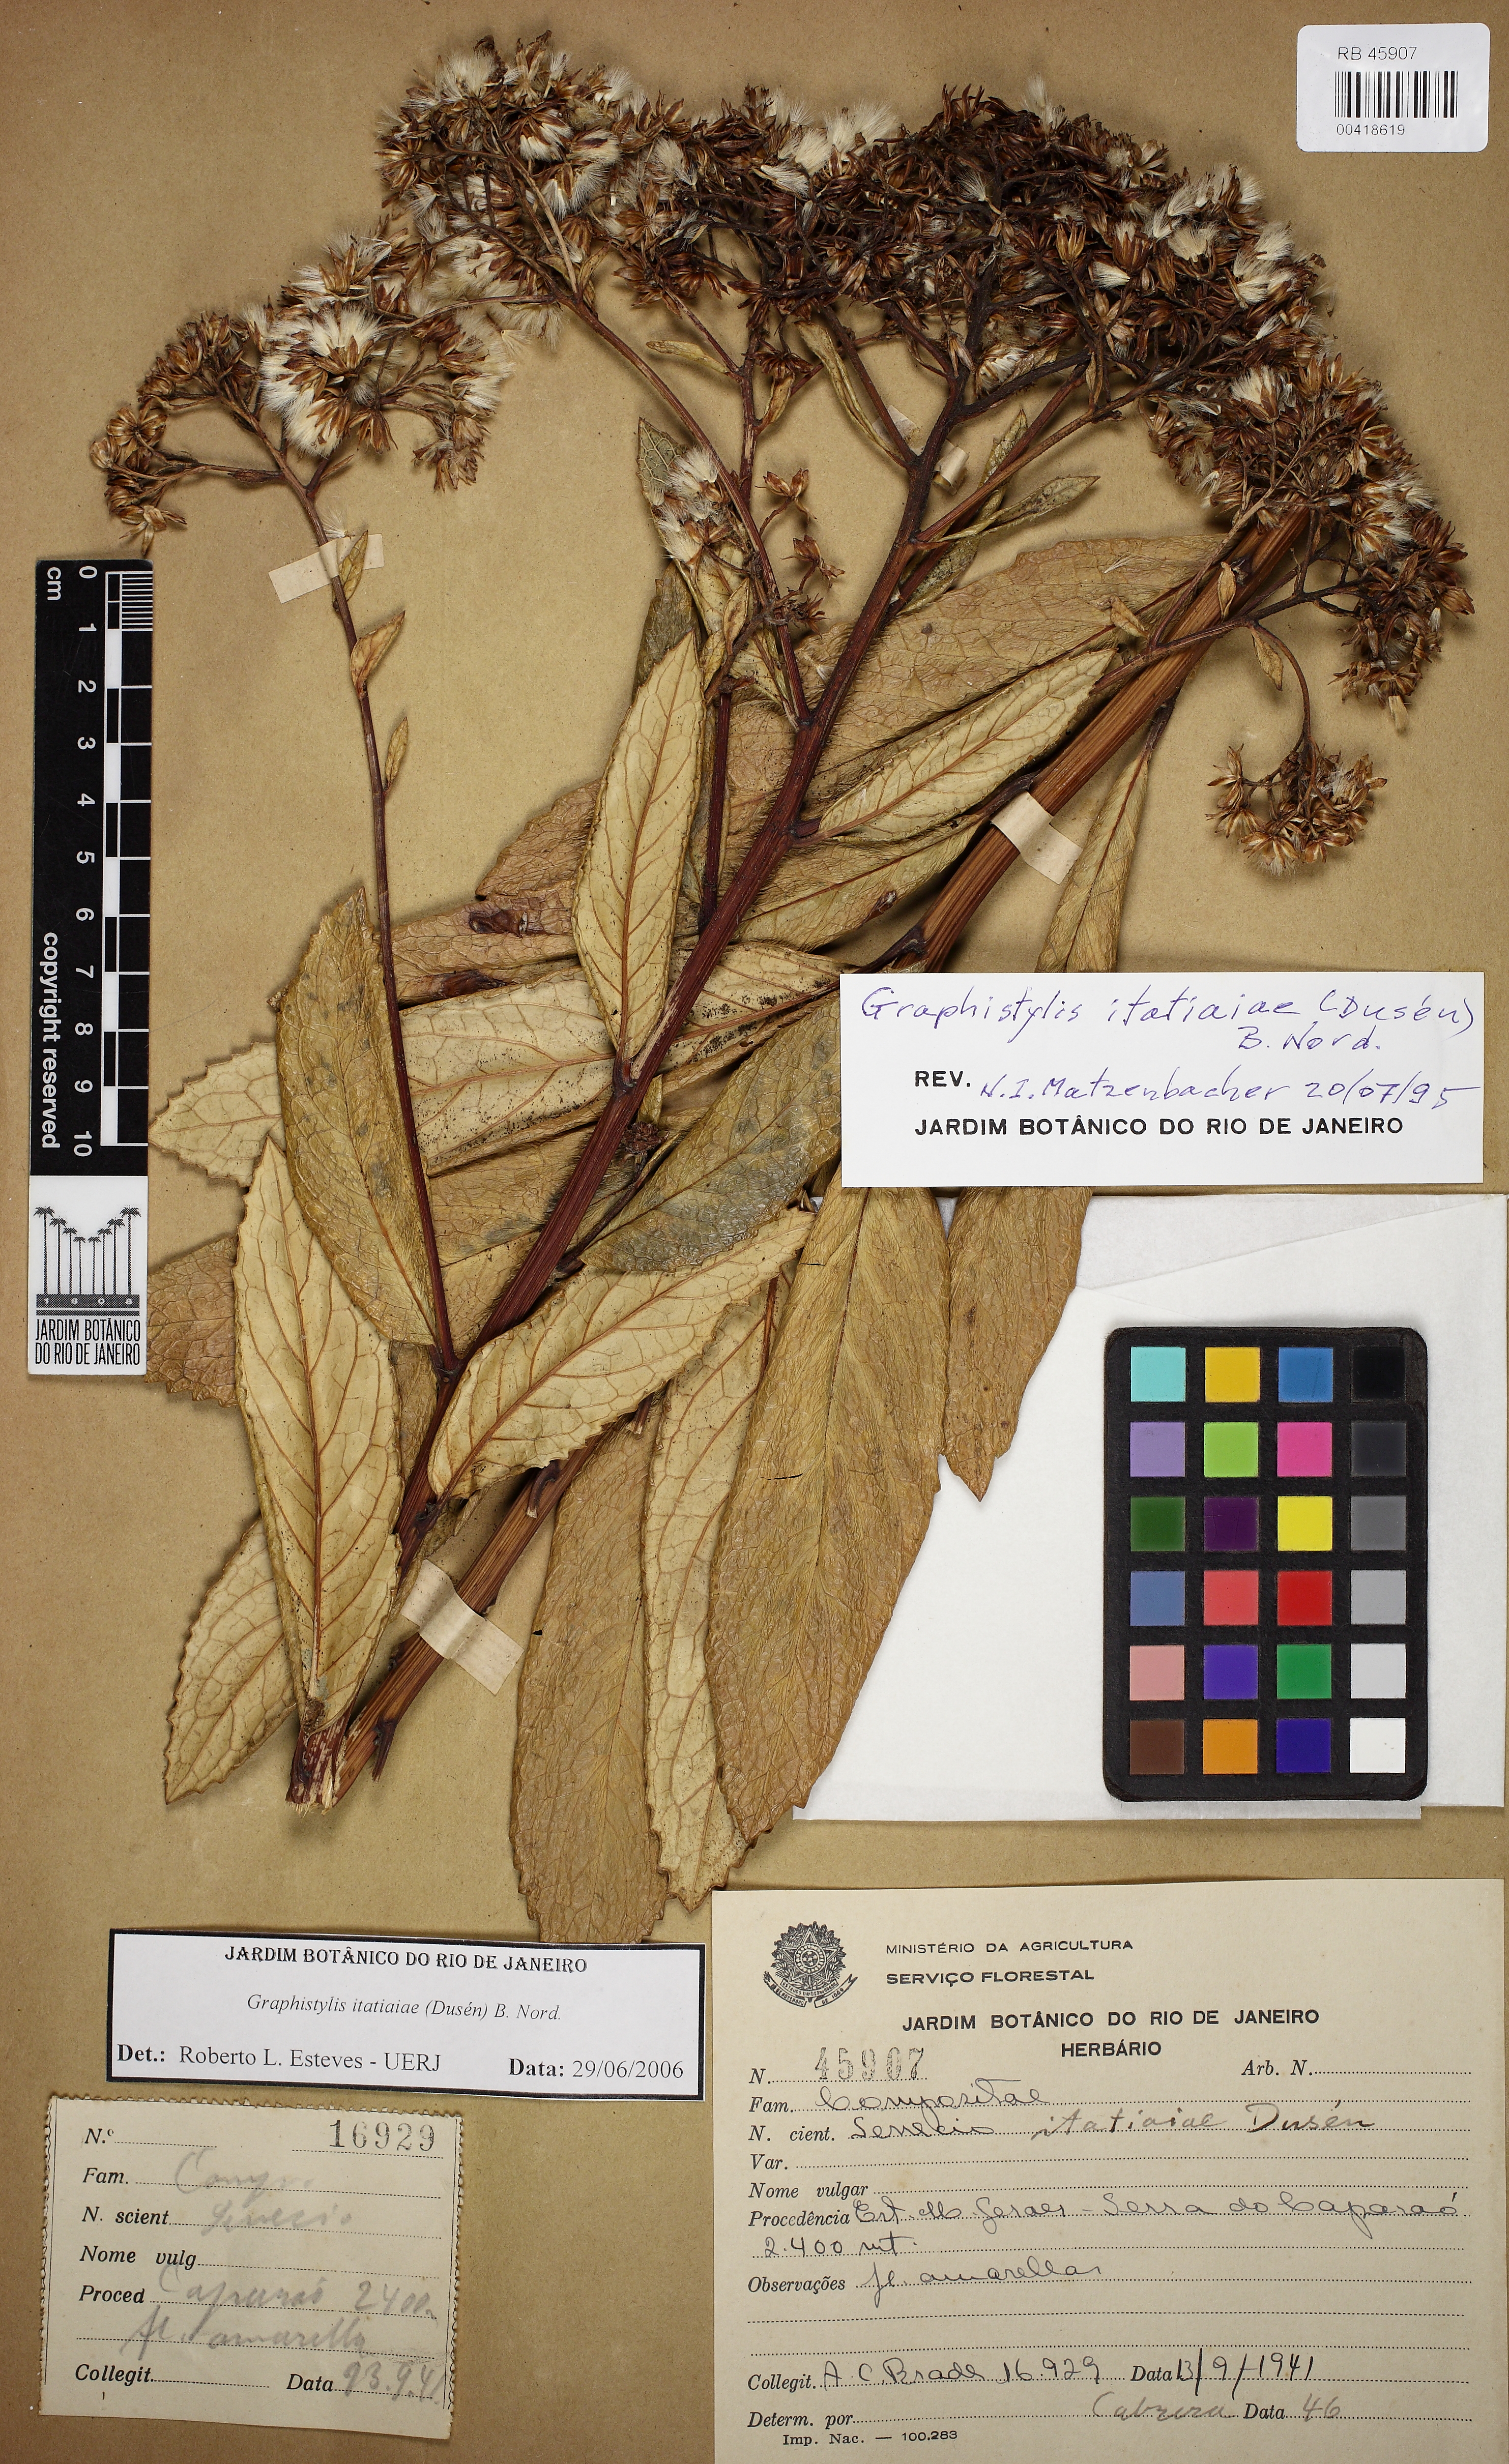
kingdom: Plantae
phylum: Tracheophyta
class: Magnoliopsida
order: Asterales
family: Asteraceae
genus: Graphistylis
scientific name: Graphistylis itatiaiae
